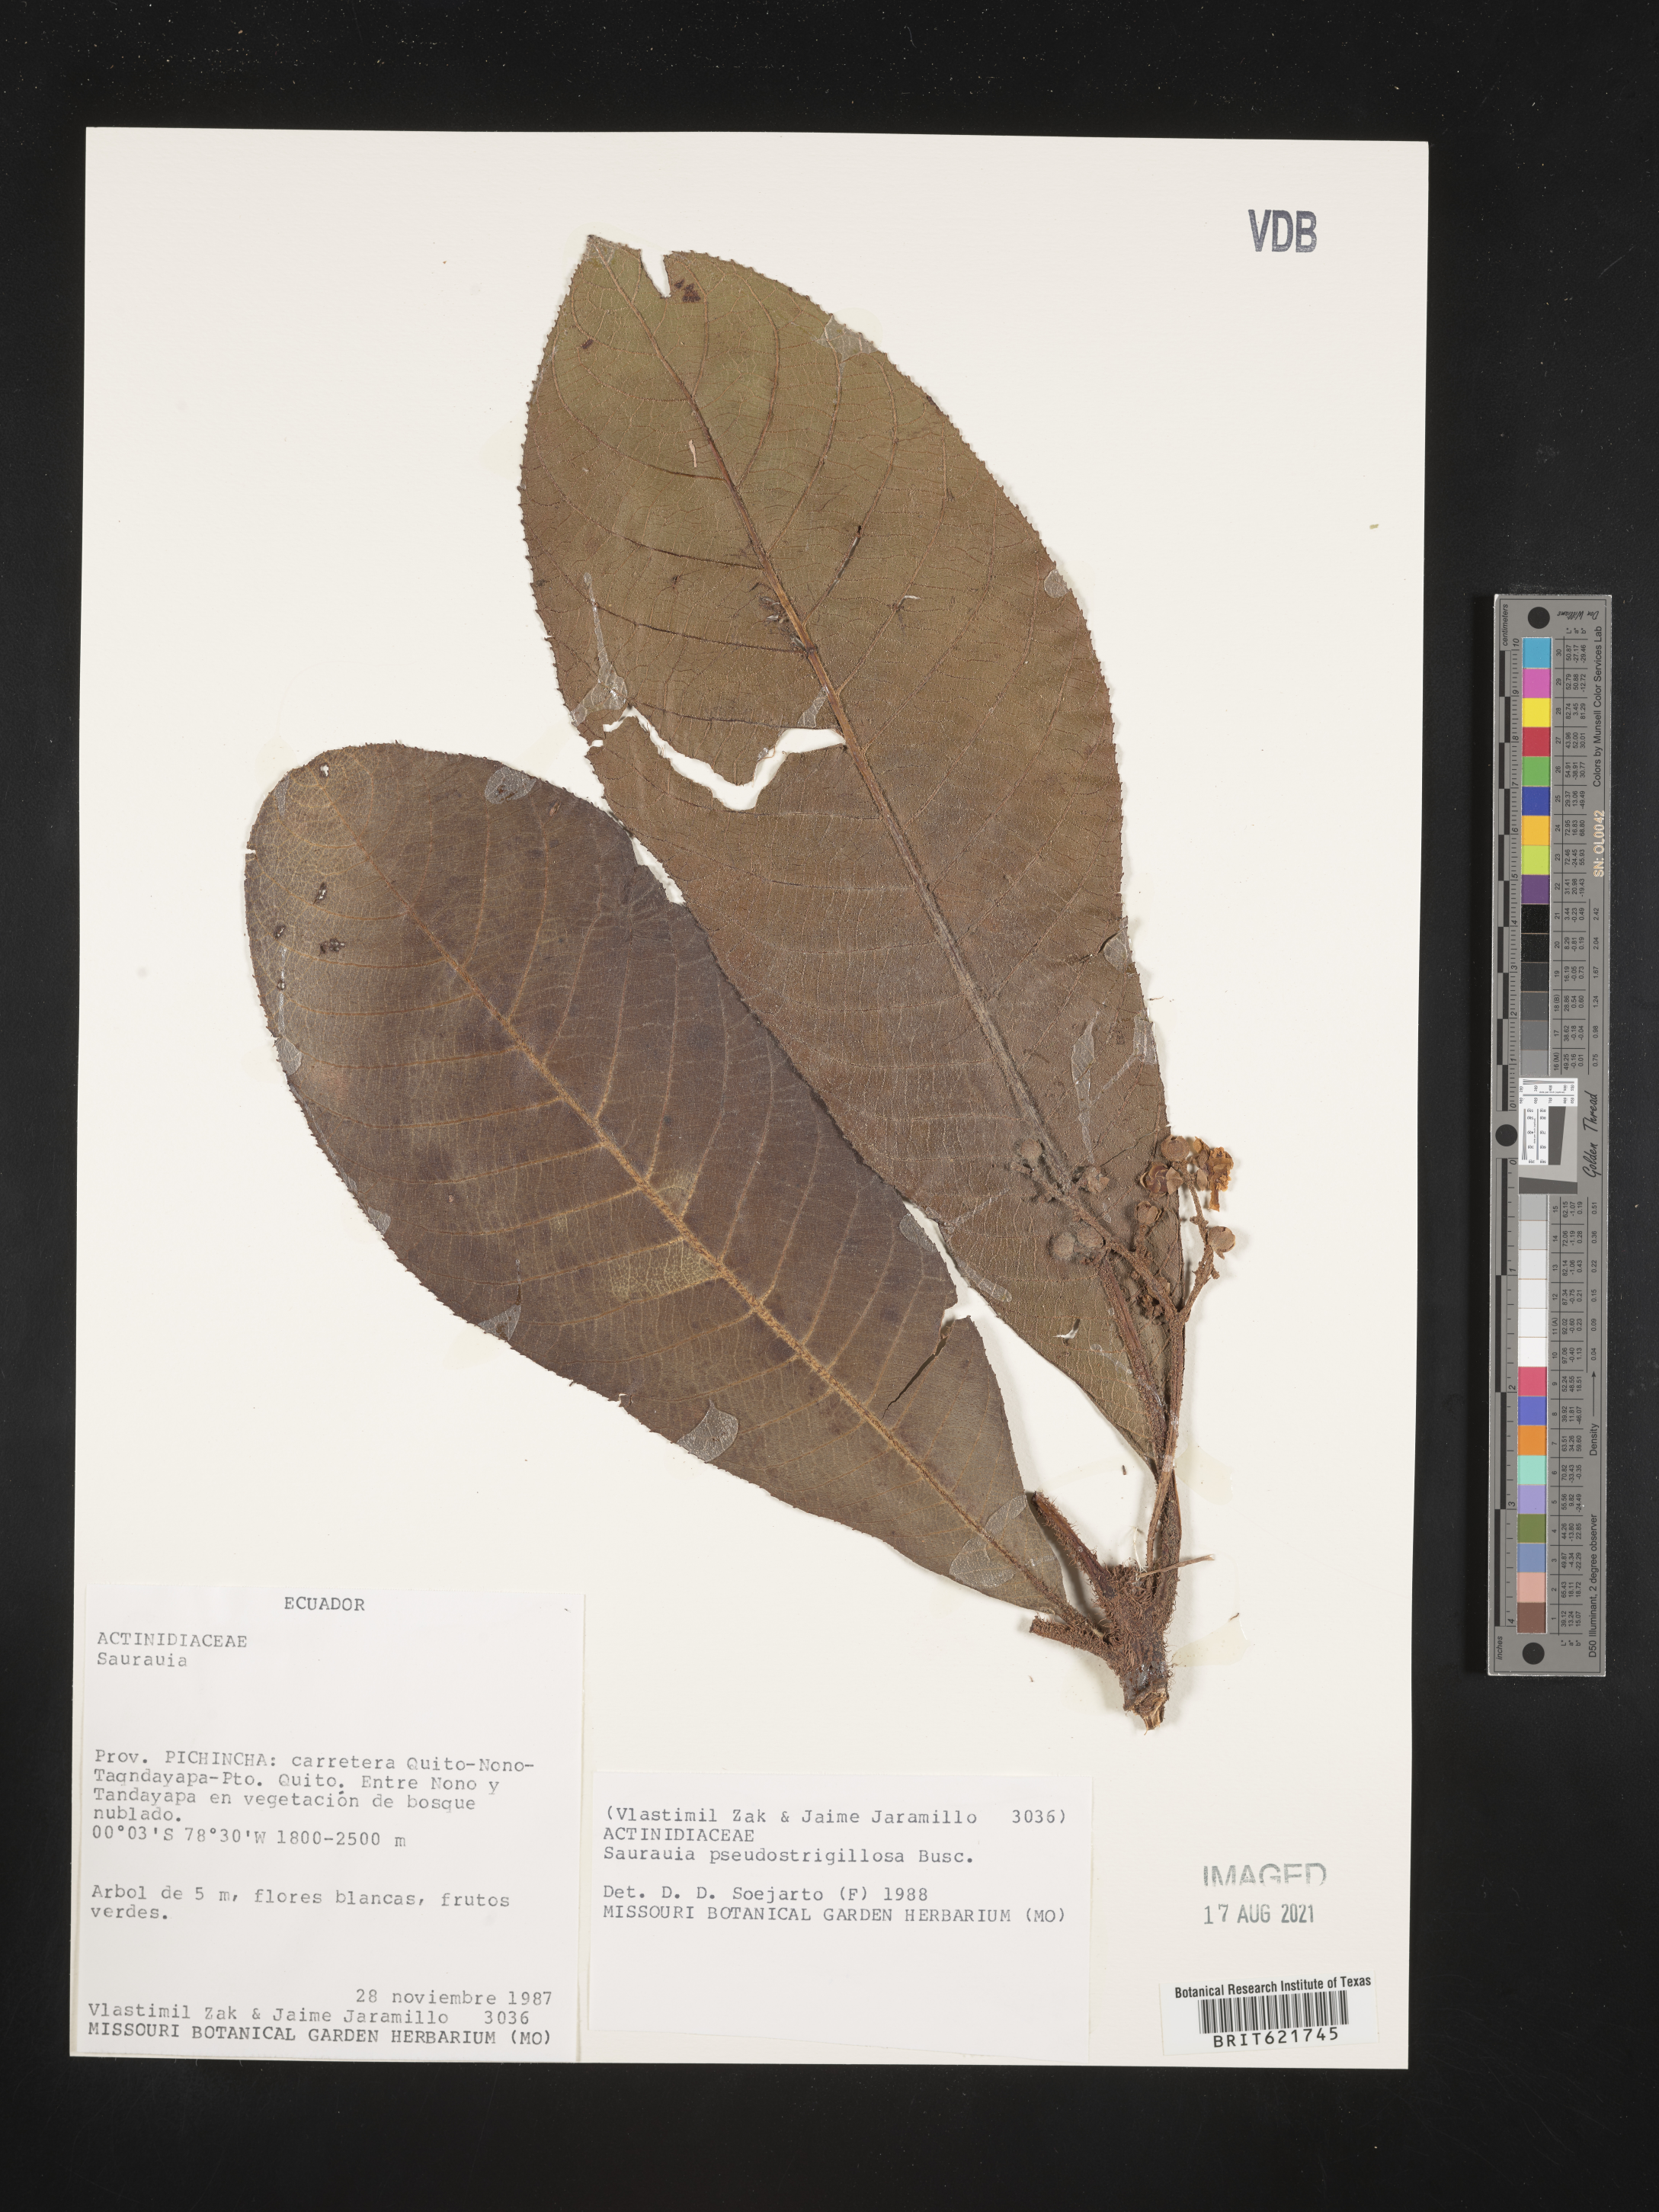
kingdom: Plantae
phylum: Tracheophyta
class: Magnoliopsida
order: Ericales
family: Actinidiaceae
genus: Saurauia
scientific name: Saurauia pseudostrigillosa
